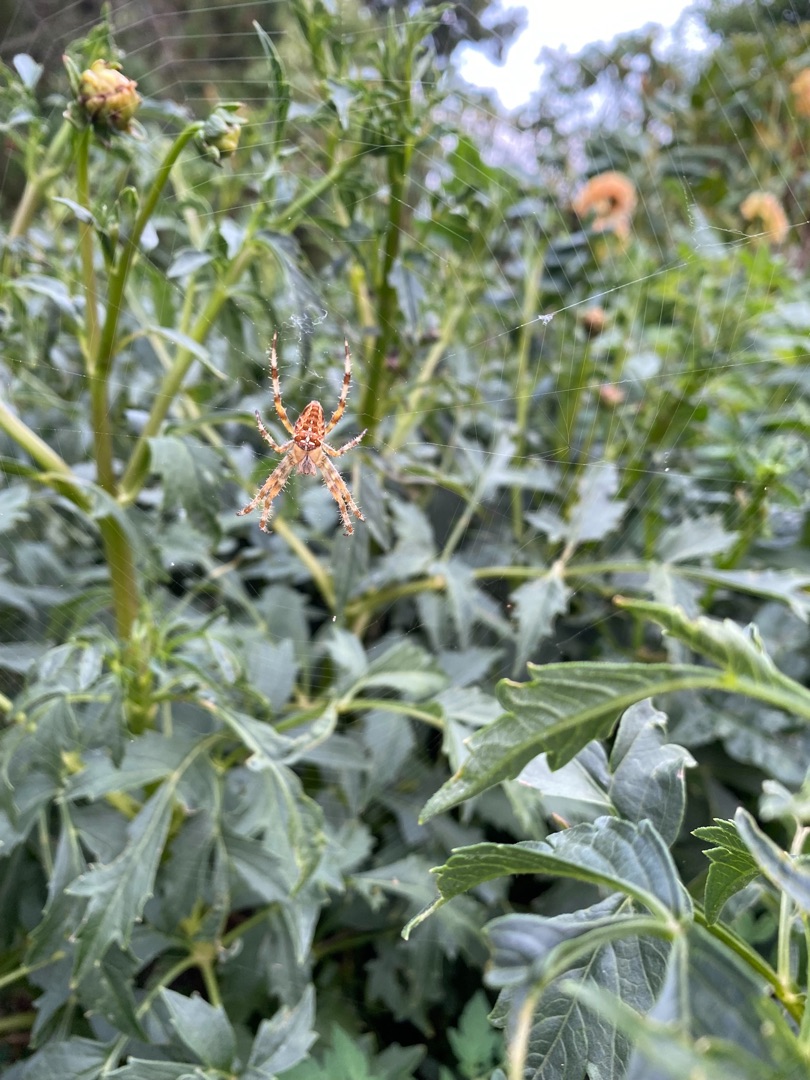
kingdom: Animalia
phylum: Arthropoda
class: Arachnida
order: Araneae
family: Araneidae
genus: Araneus
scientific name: Araneus diadematus
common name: Korsedderkop
